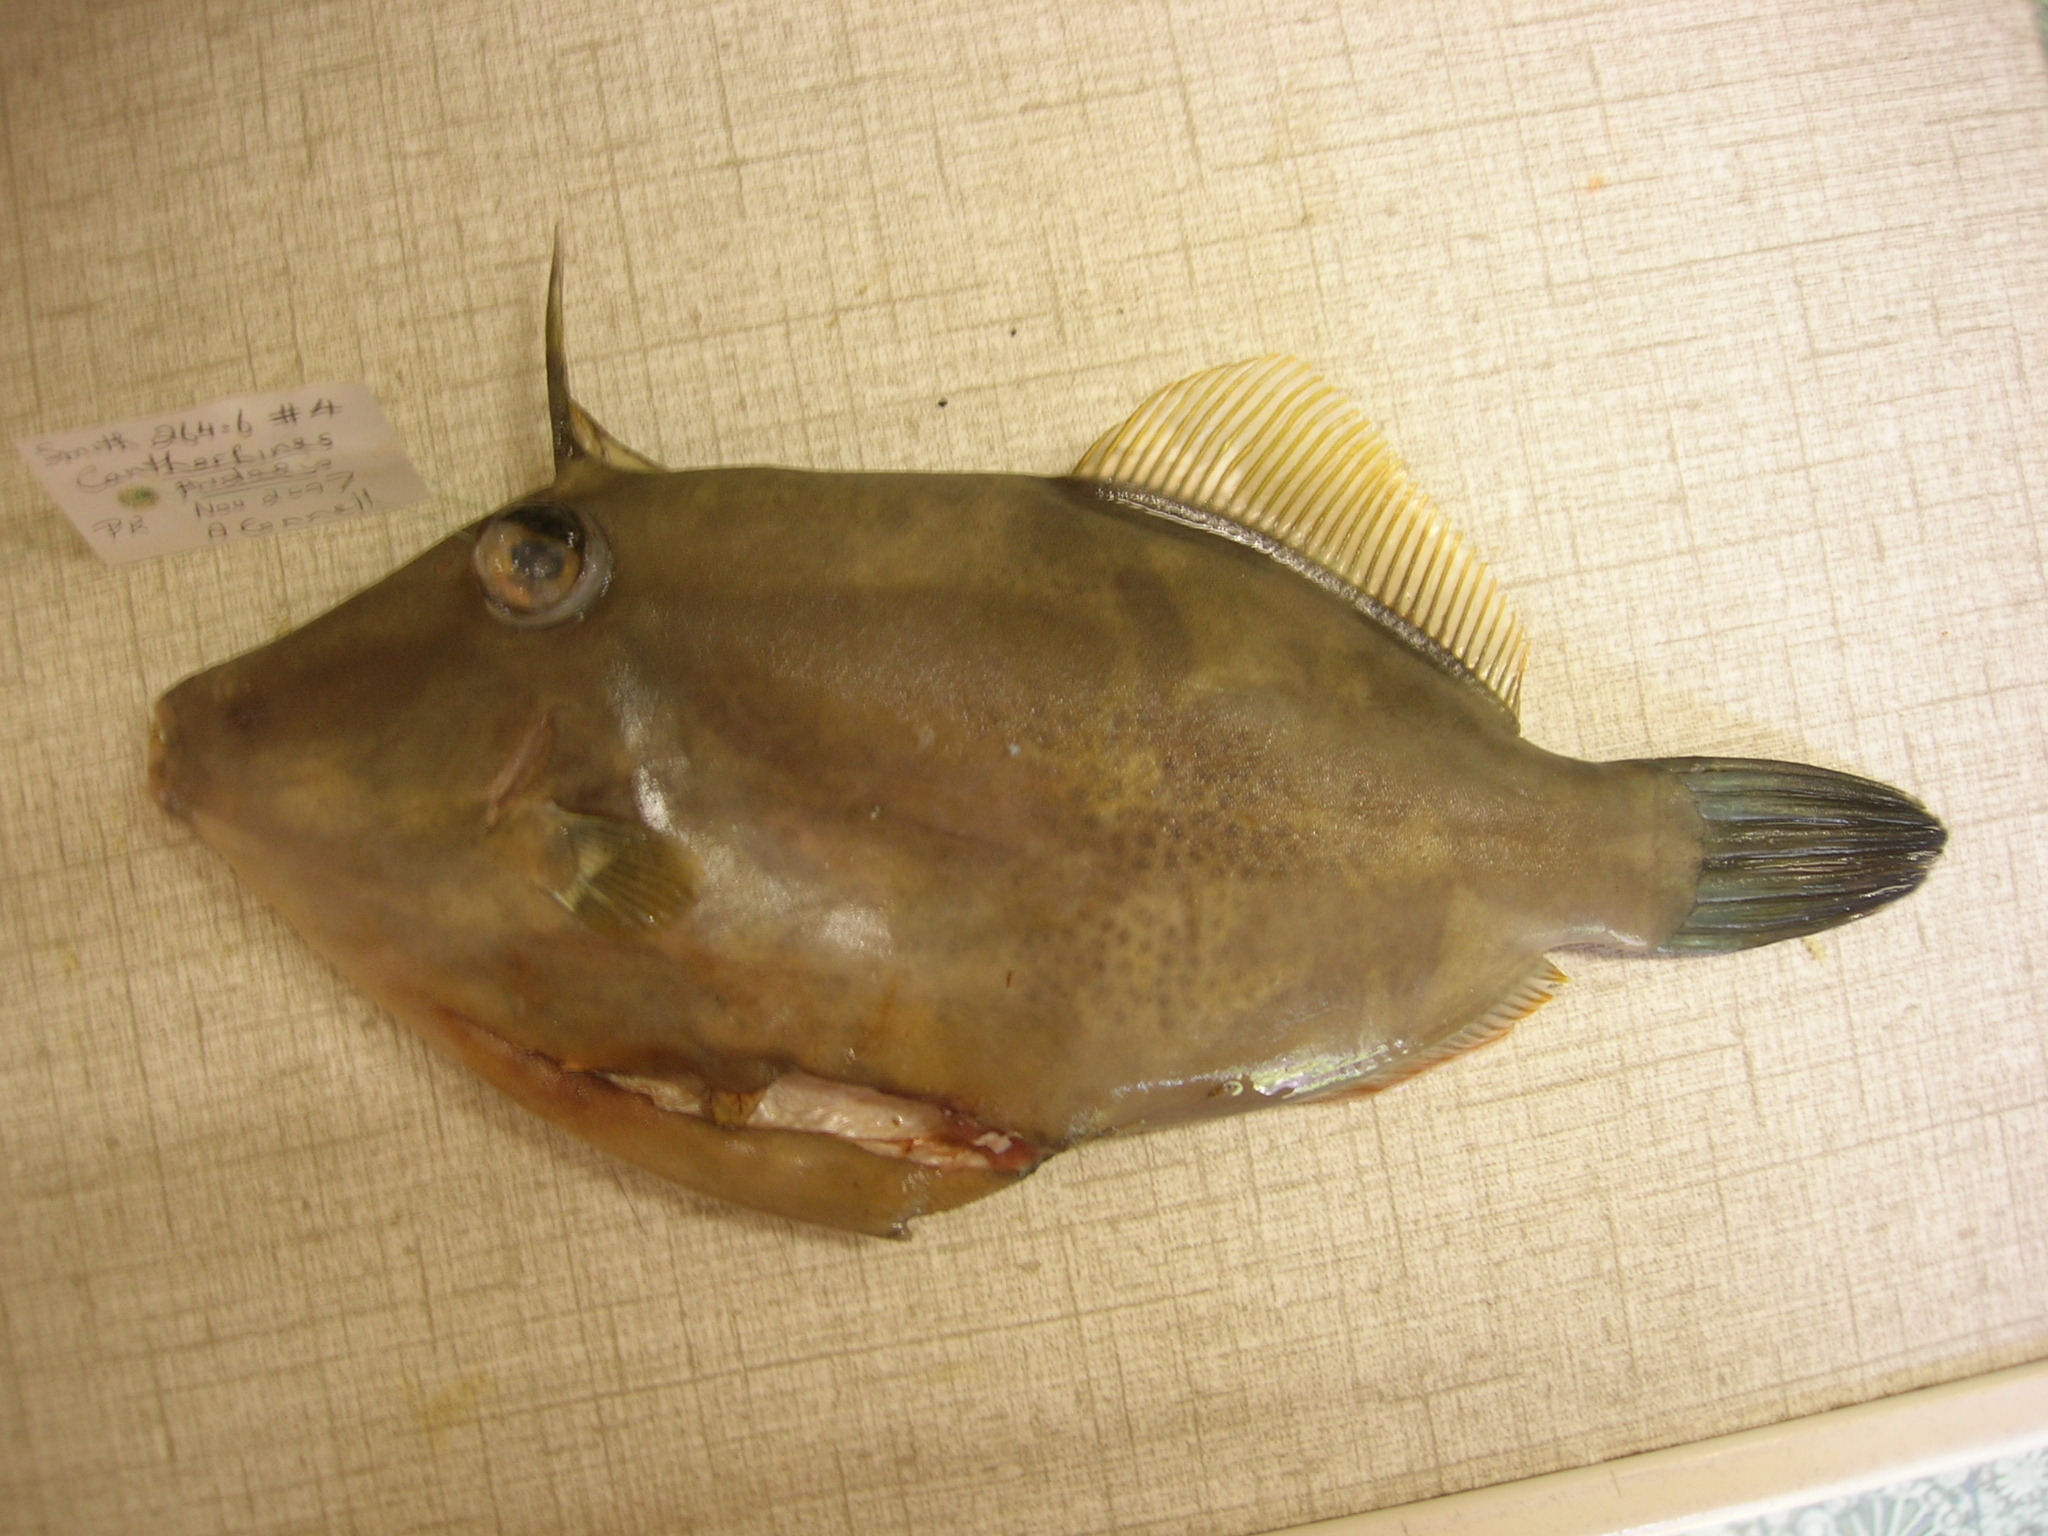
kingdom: Animalia
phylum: Chordata
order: Tetraodontiformes
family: Monacanthidae
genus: Cantherhines
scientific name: Cantherhines pardalis
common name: Honeycomb filefish
